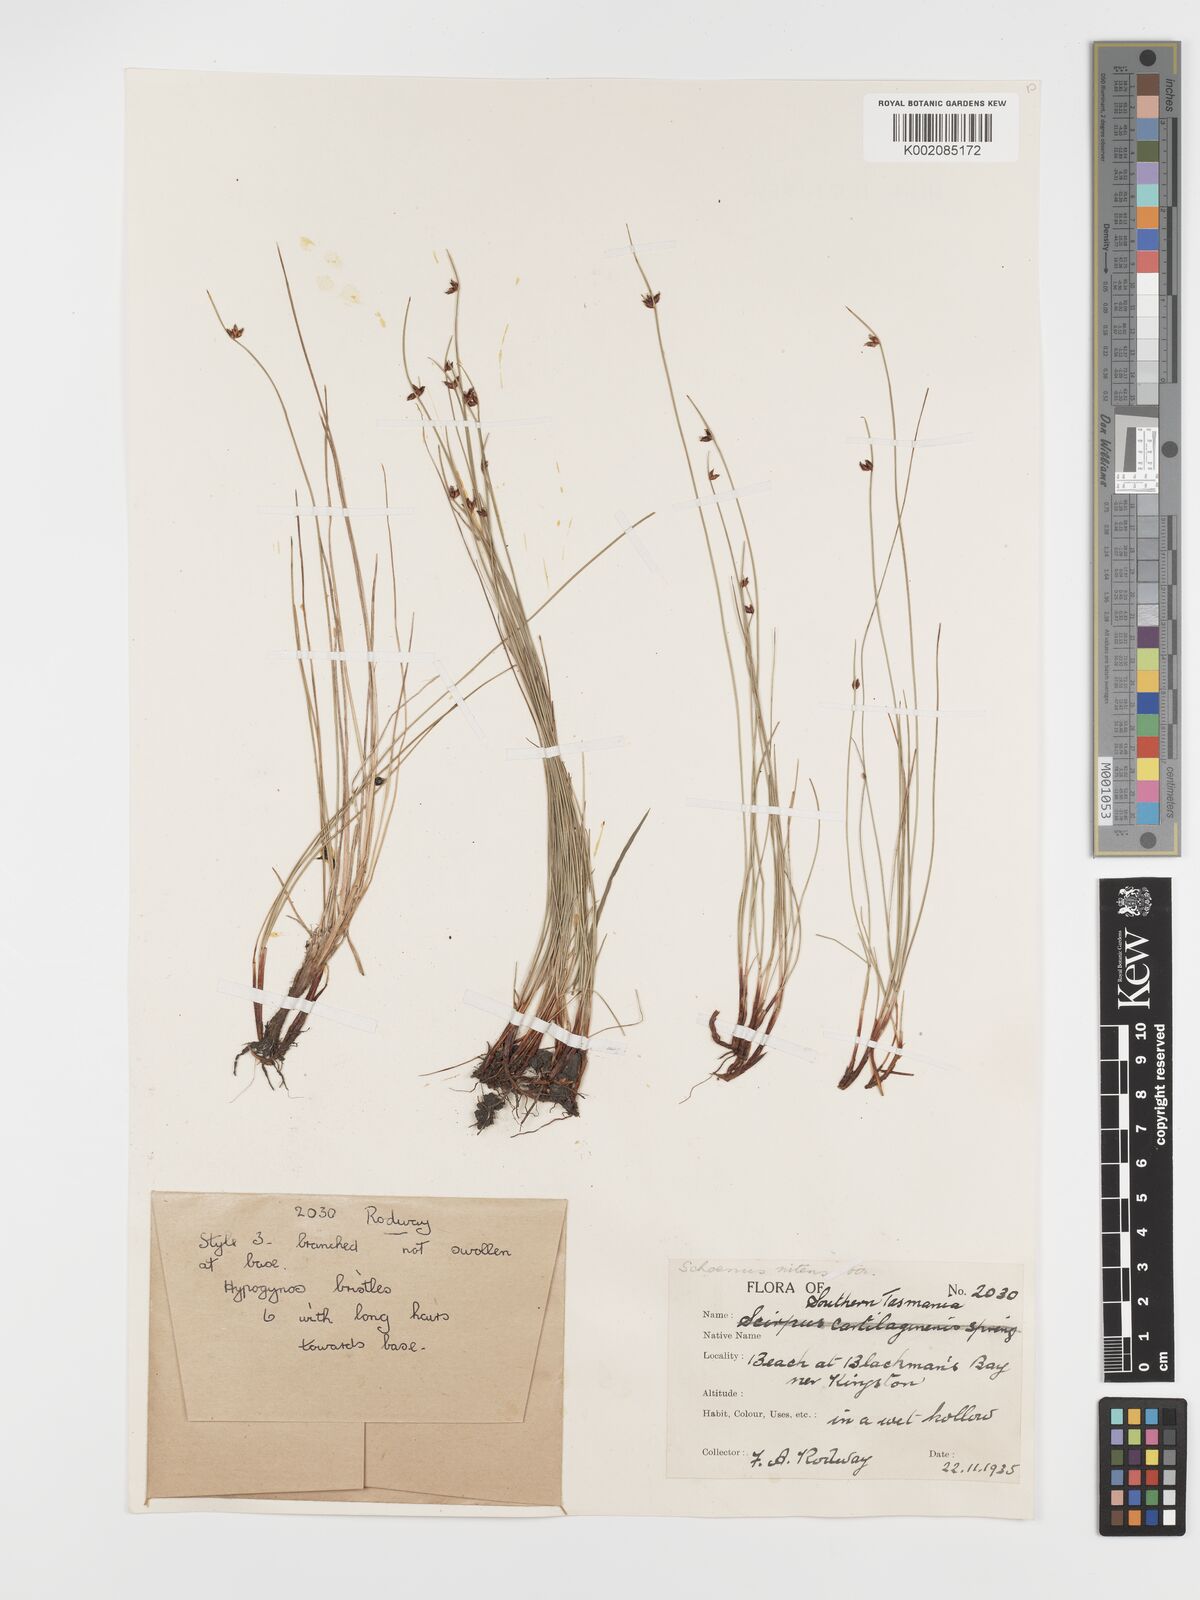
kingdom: Plantae
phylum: Tracheophyta
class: Liliopsida
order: Poales
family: Cyperaceae
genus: Schoenus
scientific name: Schoenus nitens
